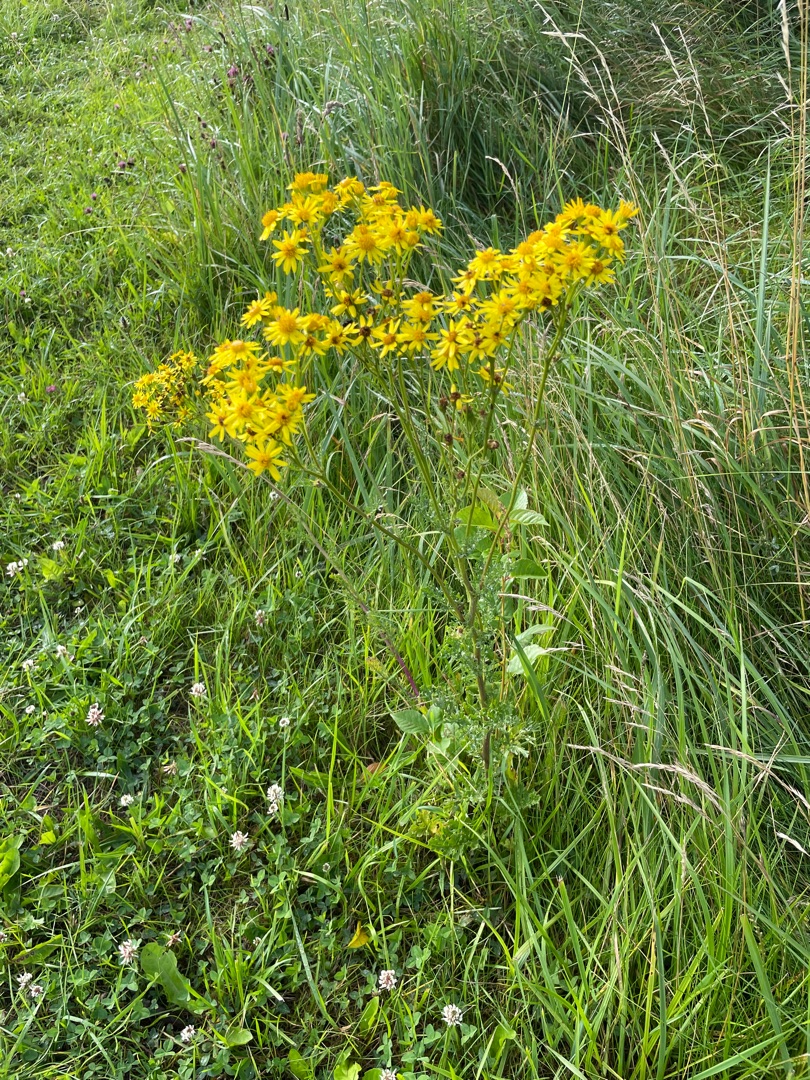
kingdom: Plantae
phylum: Tracheophyta
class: Magnoliopsida
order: Asterales
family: Asteraceae
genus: Jacobaea
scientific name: Jacobaea vulgaris
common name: Eng-brandbæger
